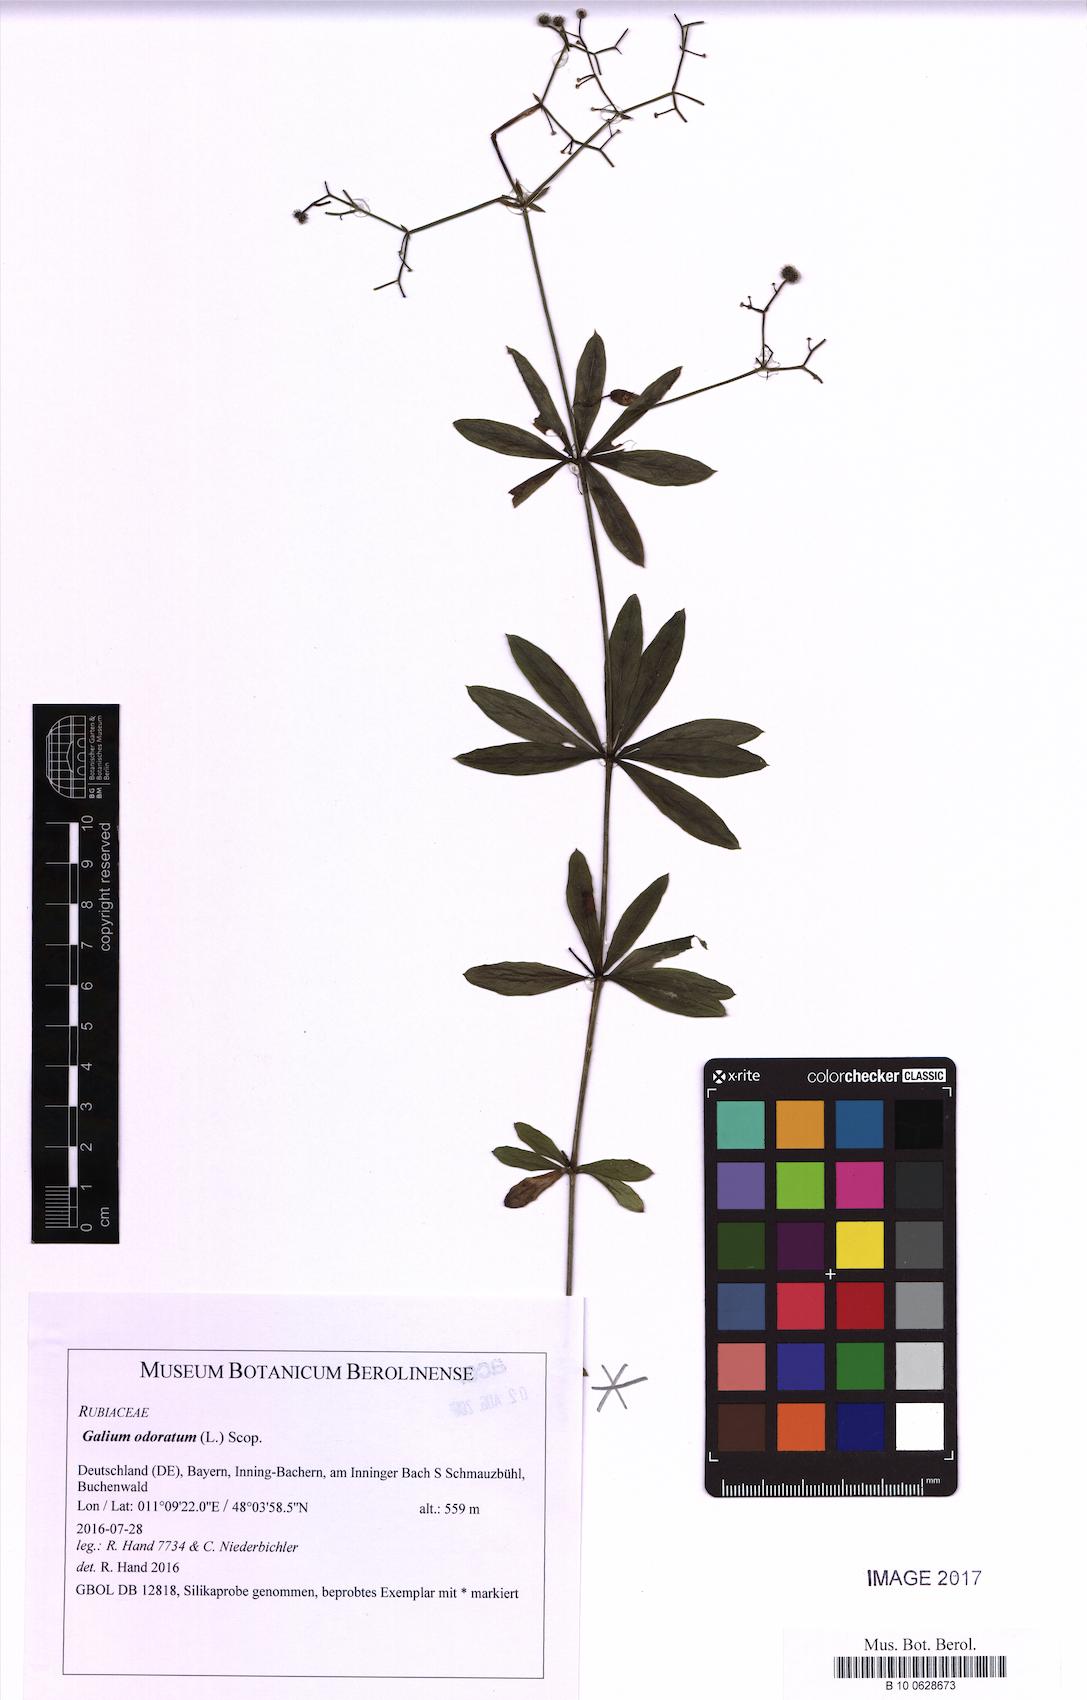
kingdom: Plantae
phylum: Tracheophyta
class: Magnoliopsida
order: Gentianales
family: Rubiaceae
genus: Galium
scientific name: Galium odoratum
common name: Sweet woodruff
